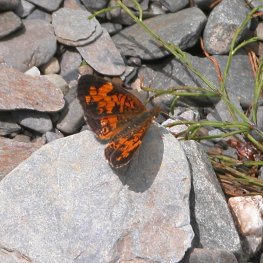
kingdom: Animalia
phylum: Arthropoda
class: Insecta
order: Lepidoptera
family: Nymphalidae
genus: Phyciodes
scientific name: Phyciodes tharos
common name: Northern Crescent
